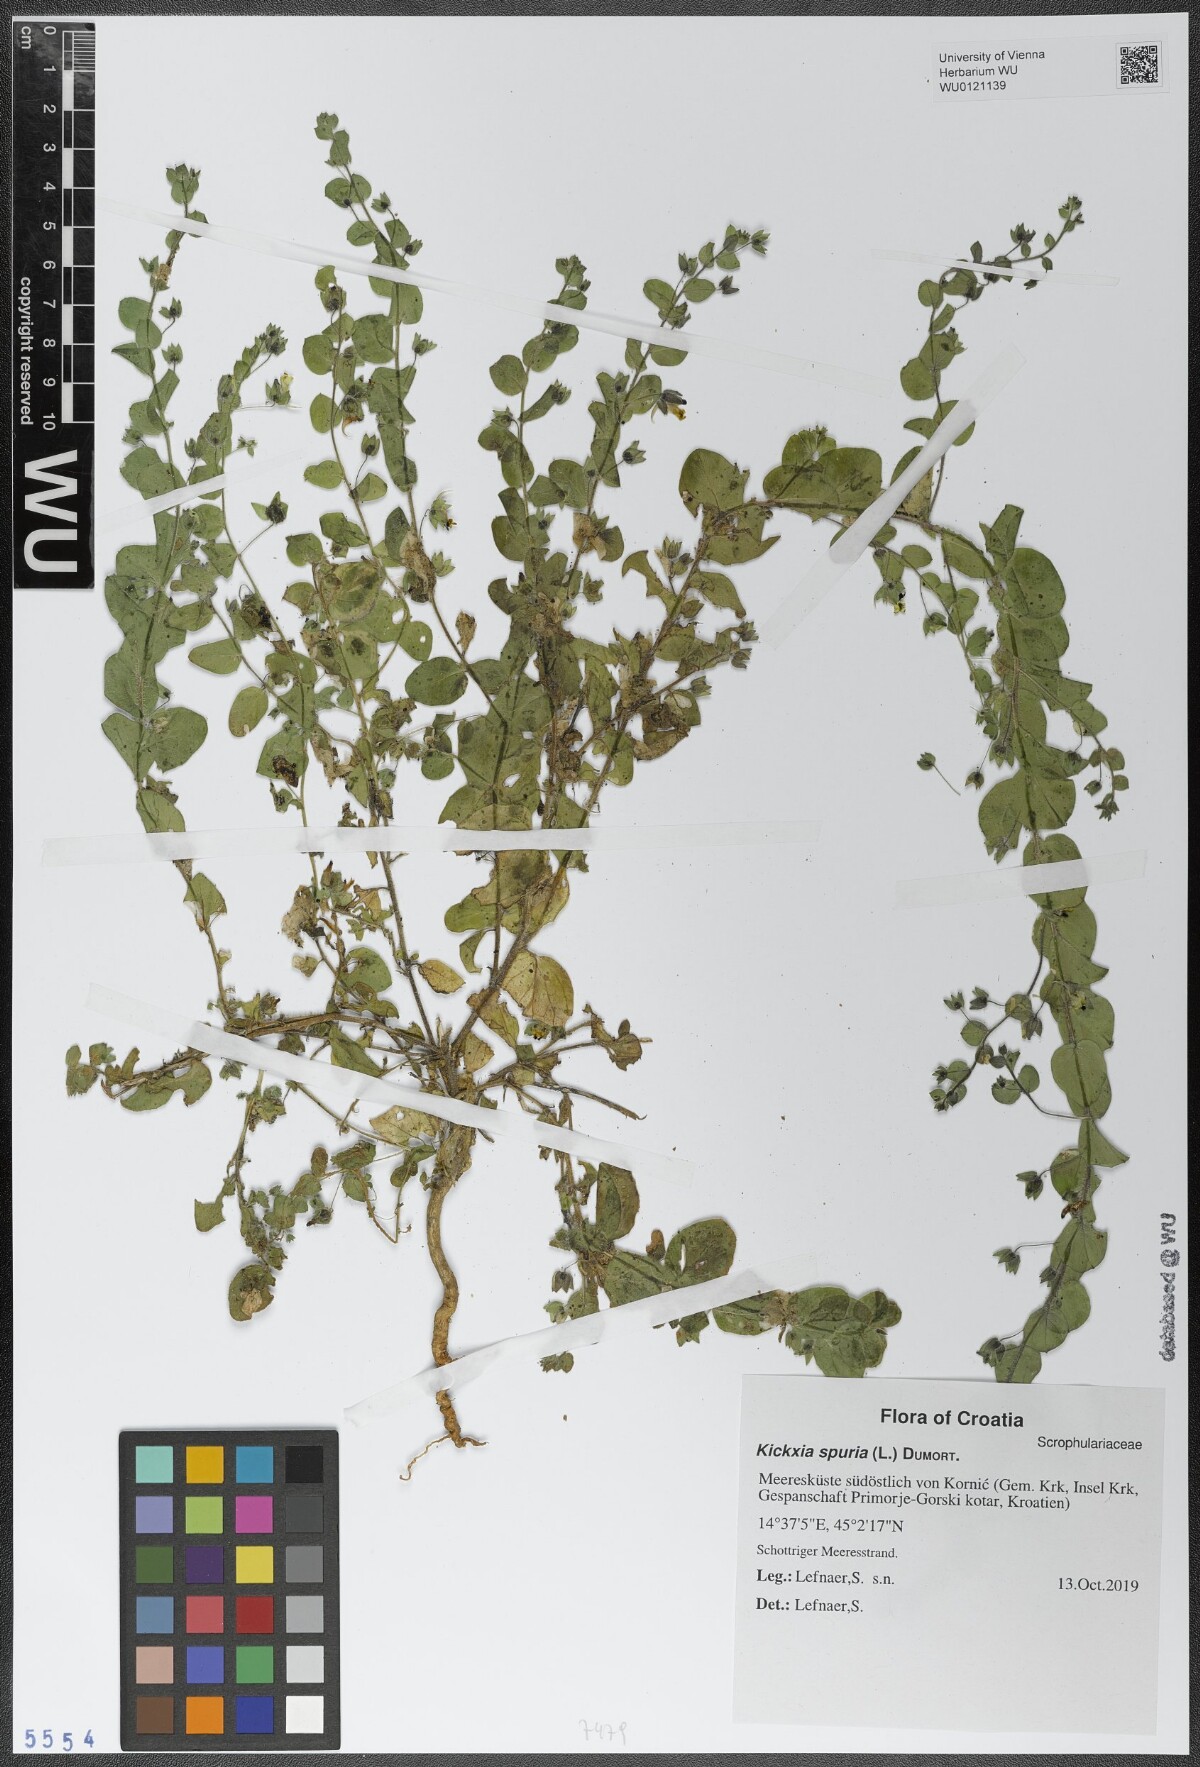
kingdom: Plantae
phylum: Tracheophyta
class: Magnoliopsida
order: Lamiales
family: Plantaginaceae
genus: Kickxia
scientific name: Kickxia spuria
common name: Round-leaved fluellen
